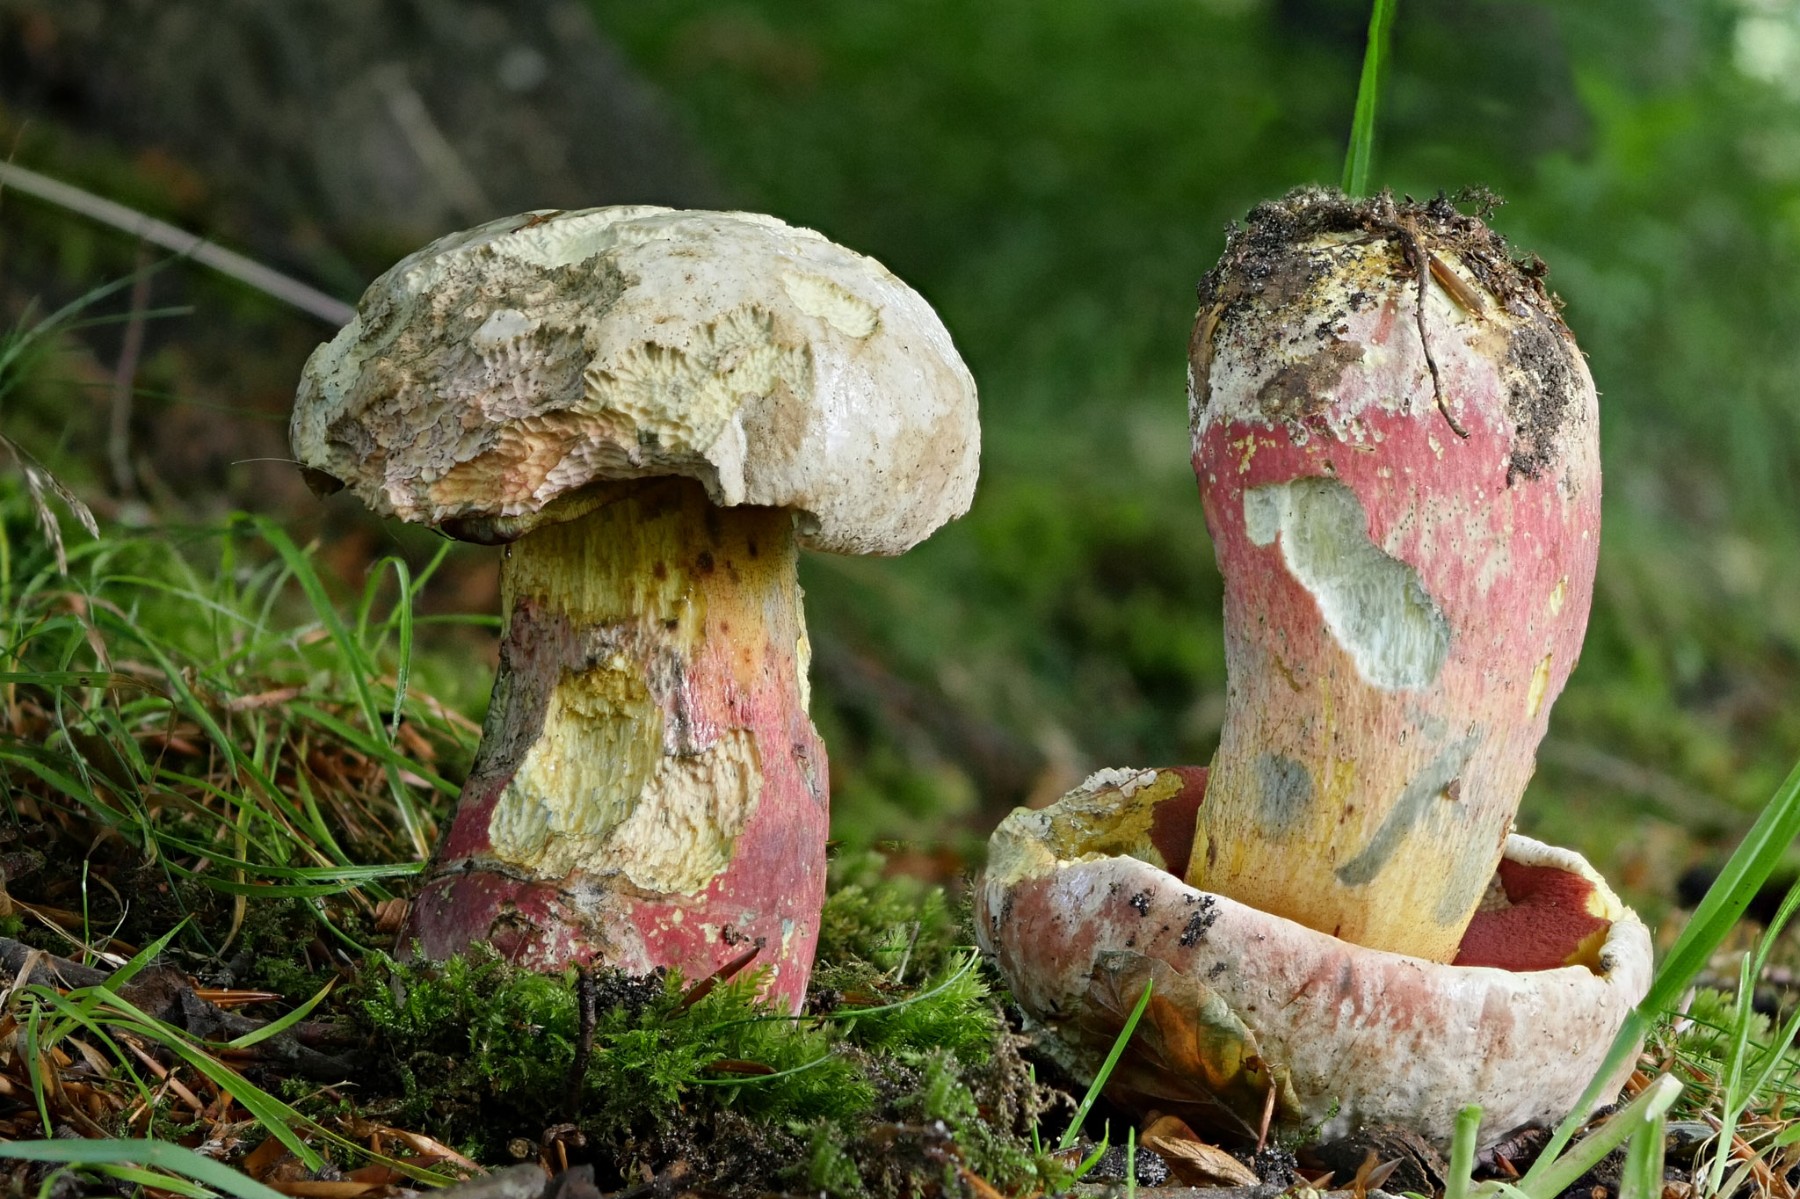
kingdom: Fungi
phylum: Basidiomycota
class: Agaricomycetes
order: Boletales
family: Boletaceae
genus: Rubroboletus
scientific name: Rubroboletus satanas
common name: Satans rørhat
